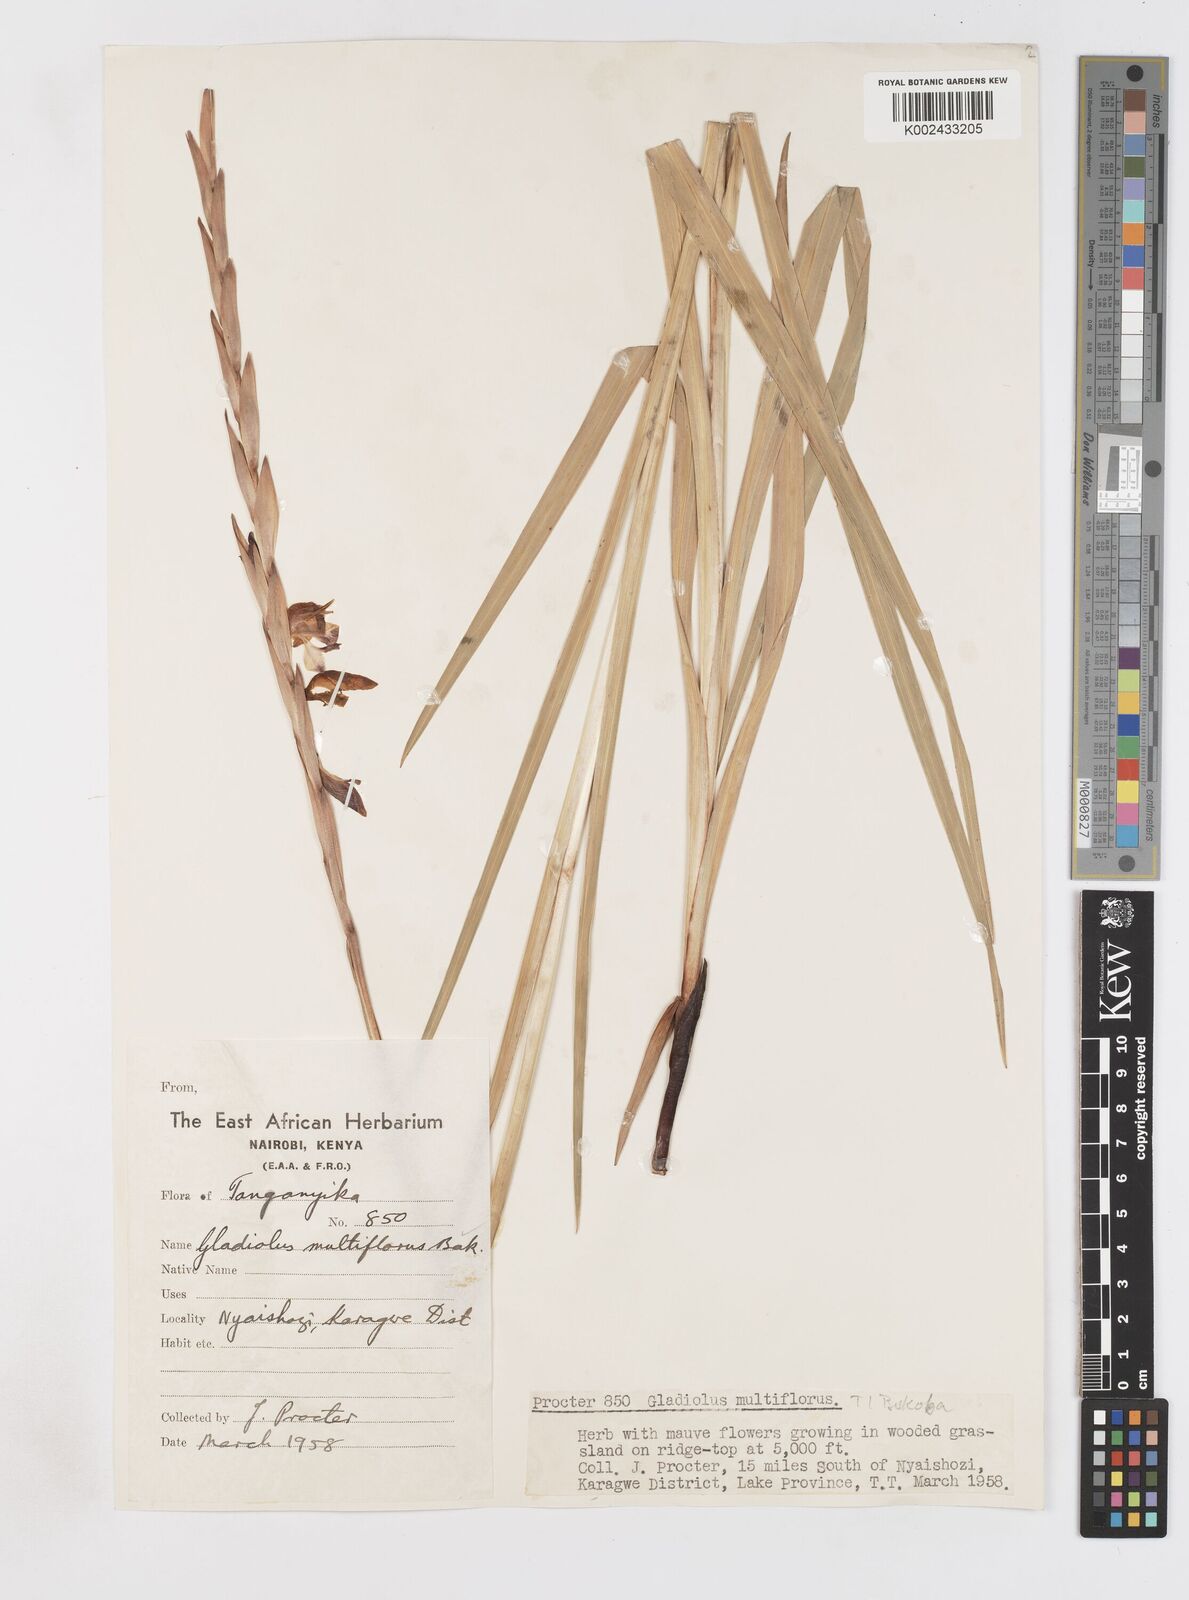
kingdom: Plantae
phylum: Tracheophyta
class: Liliopsida
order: Asparagales
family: Iridaceae
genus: Gladiolus
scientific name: Gladiolus gregarius
